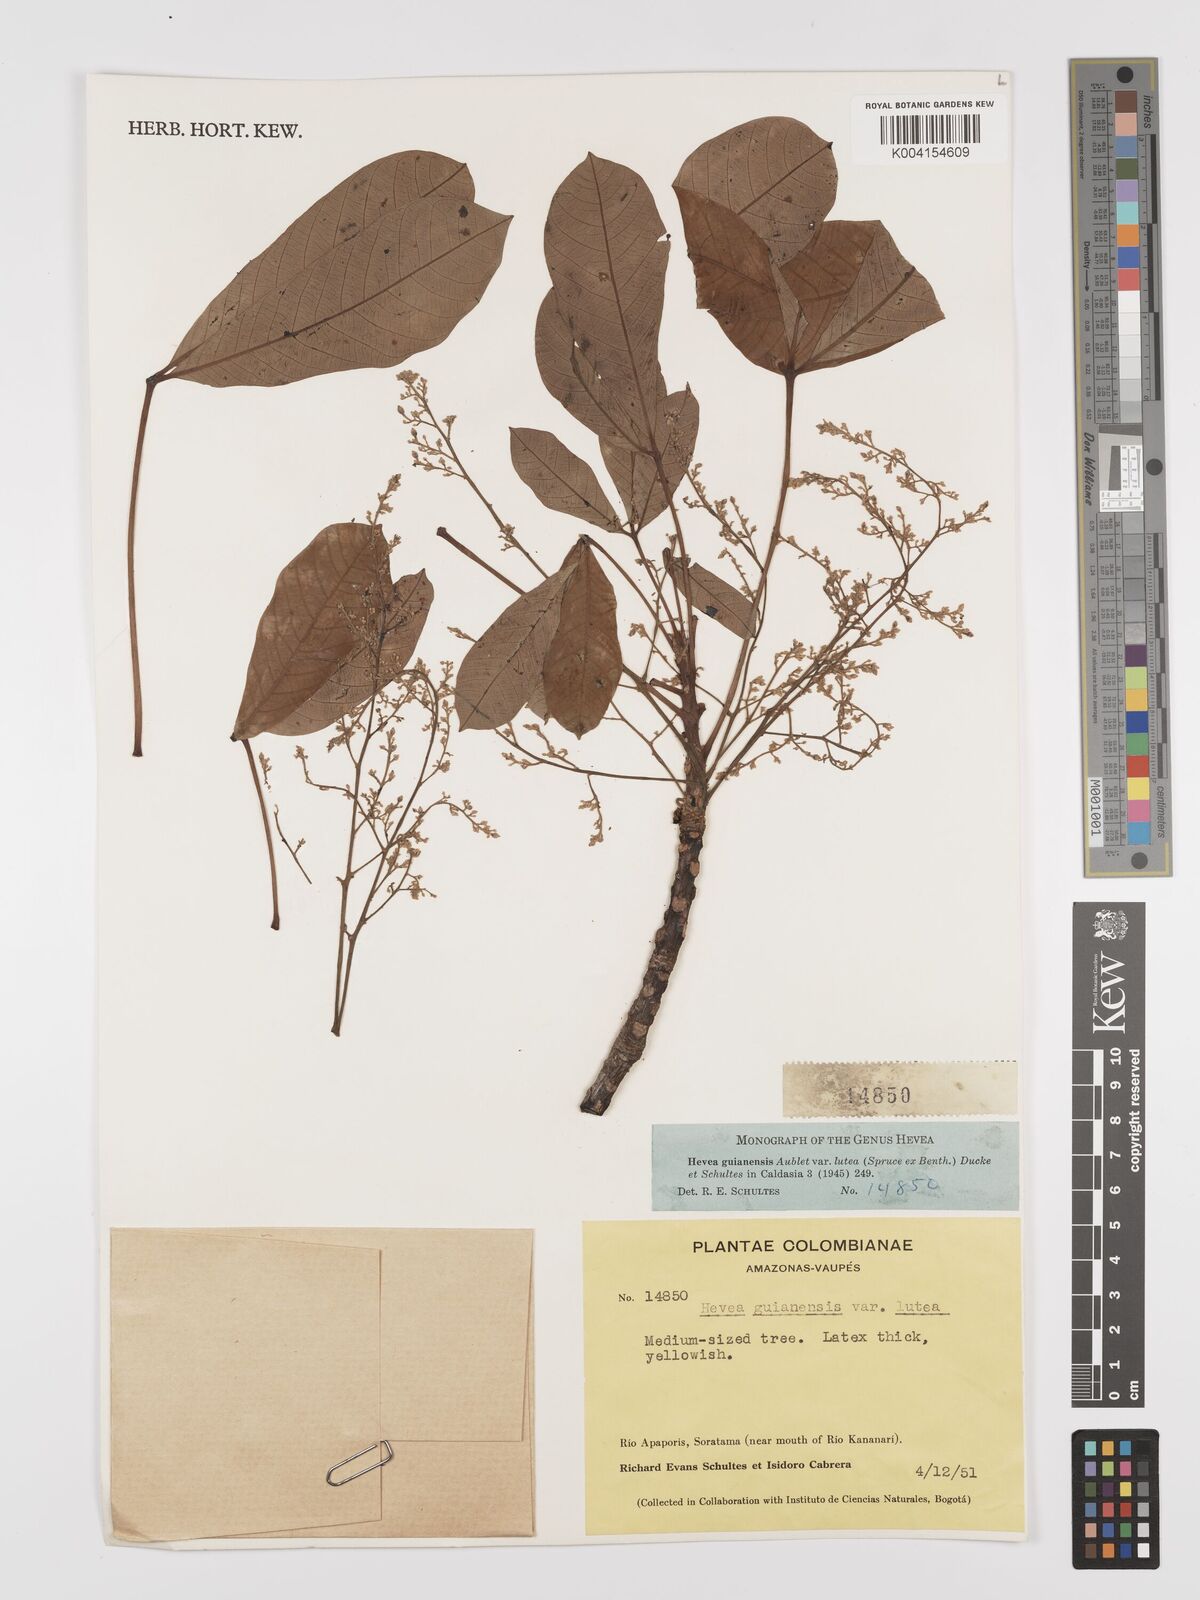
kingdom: Plantae
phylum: Tracheophyta
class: Magnoliopsida
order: Malpighiales
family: Euphorbiaceae
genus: Hevea
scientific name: Hevea guianensis
